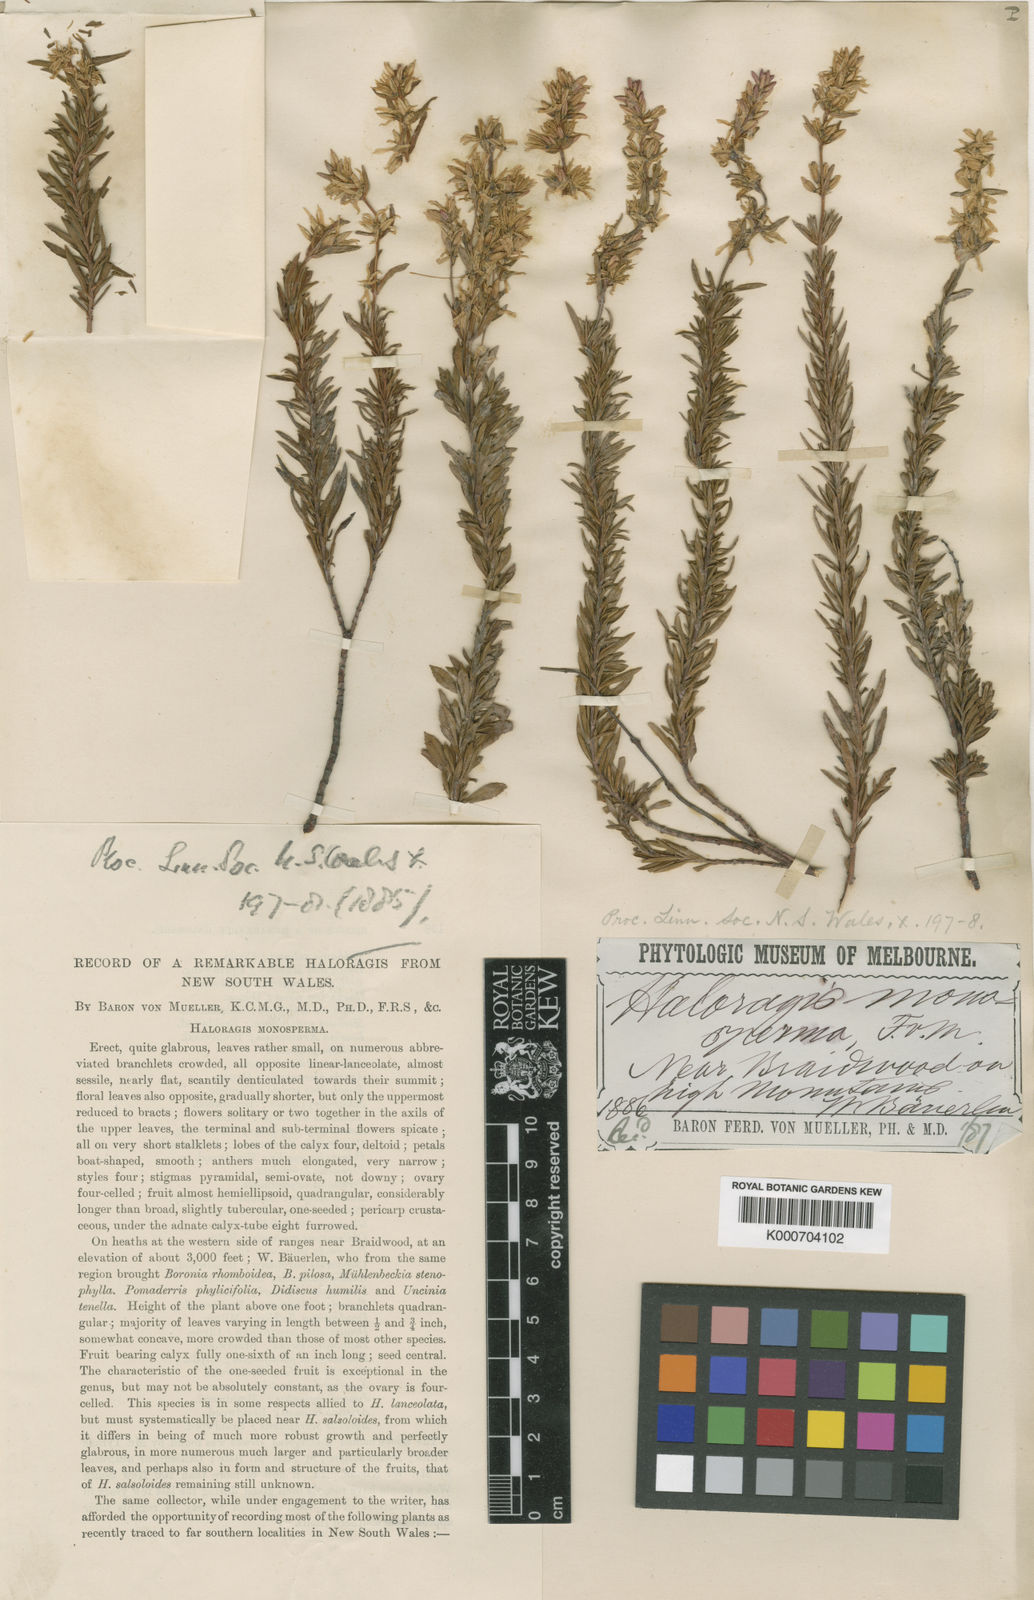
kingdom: Plantae
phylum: Tracheophyta
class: Magnoliopsida
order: Saxifragales
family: Haloragaceae
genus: Glischrocaryon
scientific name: Glischrocaryon monospermum
